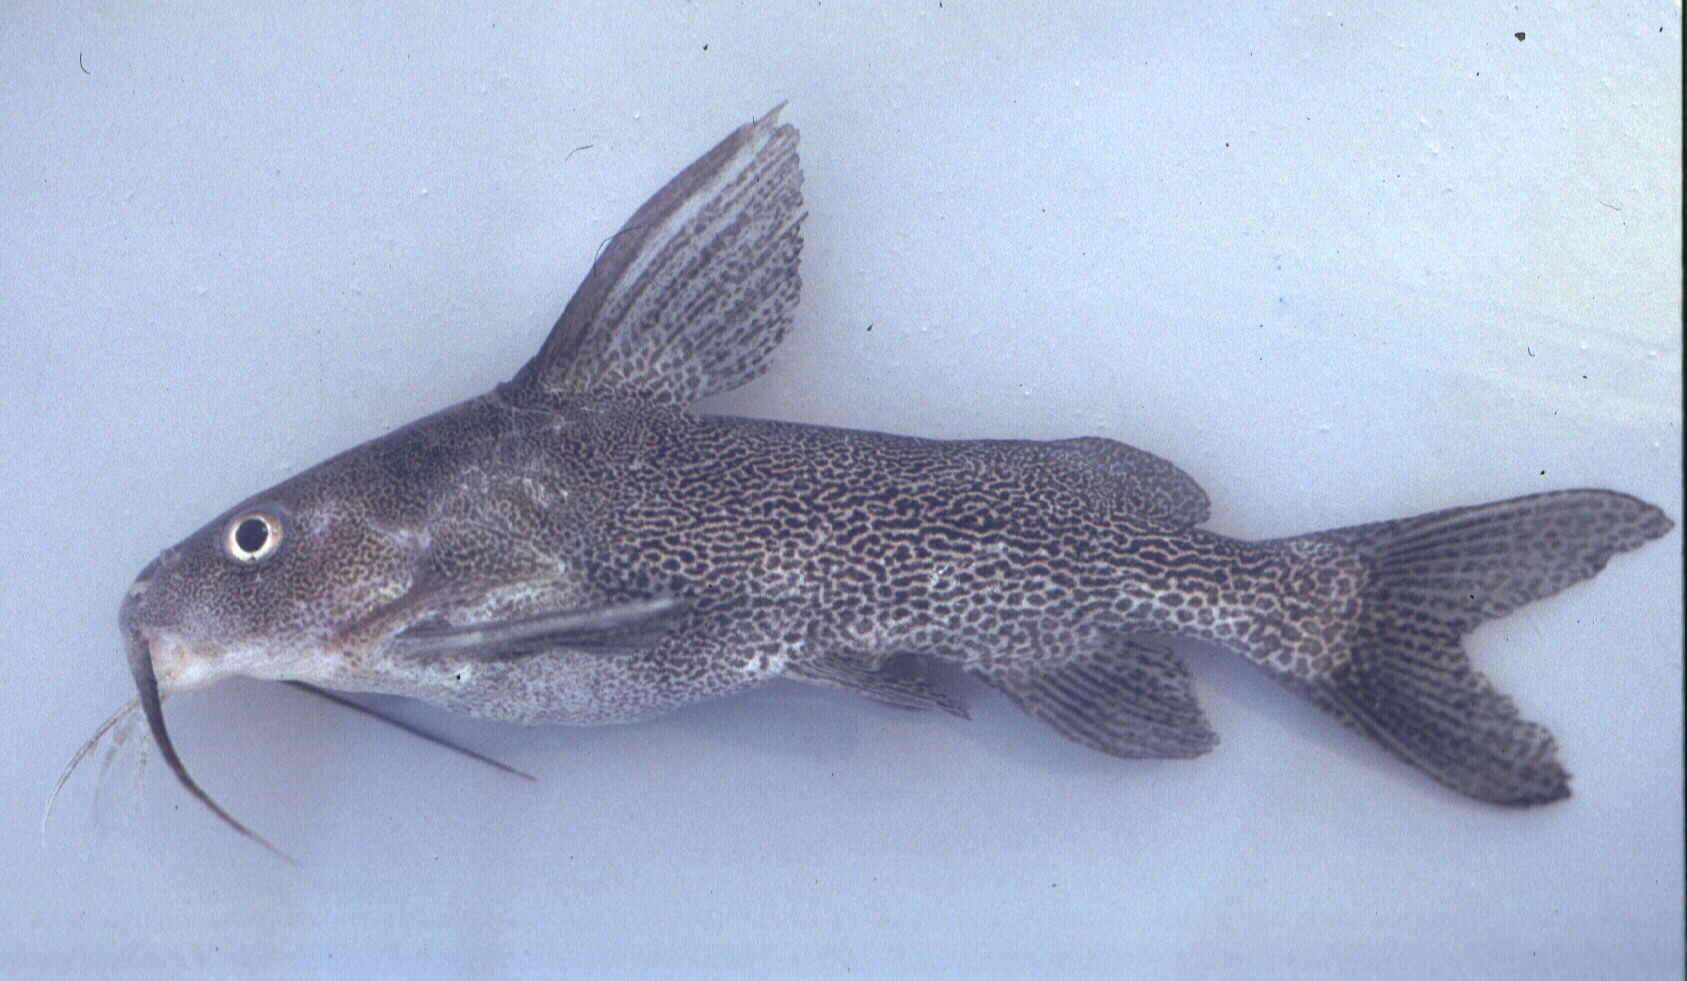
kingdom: Animalia
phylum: Chordata
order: Siluriformes
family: Mochokidae
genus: Synodontis
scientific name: Synodontis vanderwaali
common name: Finetooth squeaker
